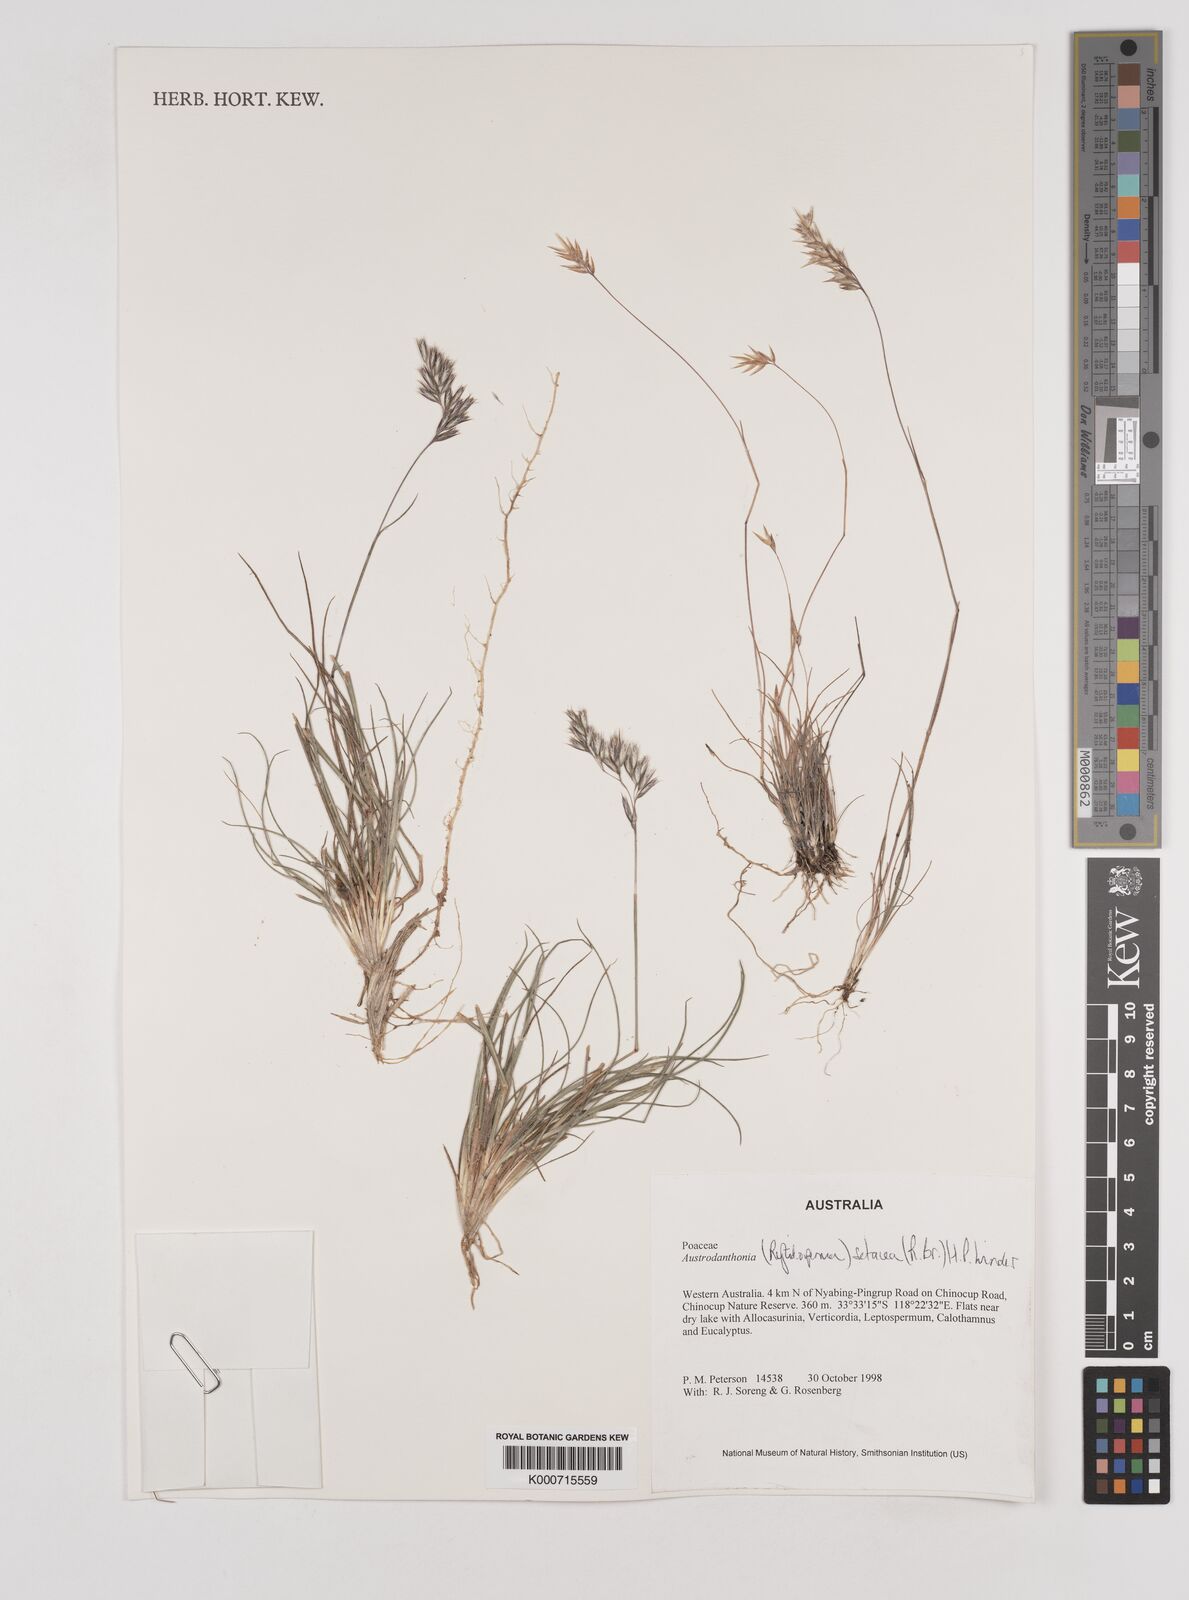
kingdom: Plantae
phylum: Tracheophyta
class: Liliopsida
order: Poales
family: Poaceae
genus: Rytidosperma
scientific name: Rytidosperma setaceum
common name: Small-flower wallaby grass
